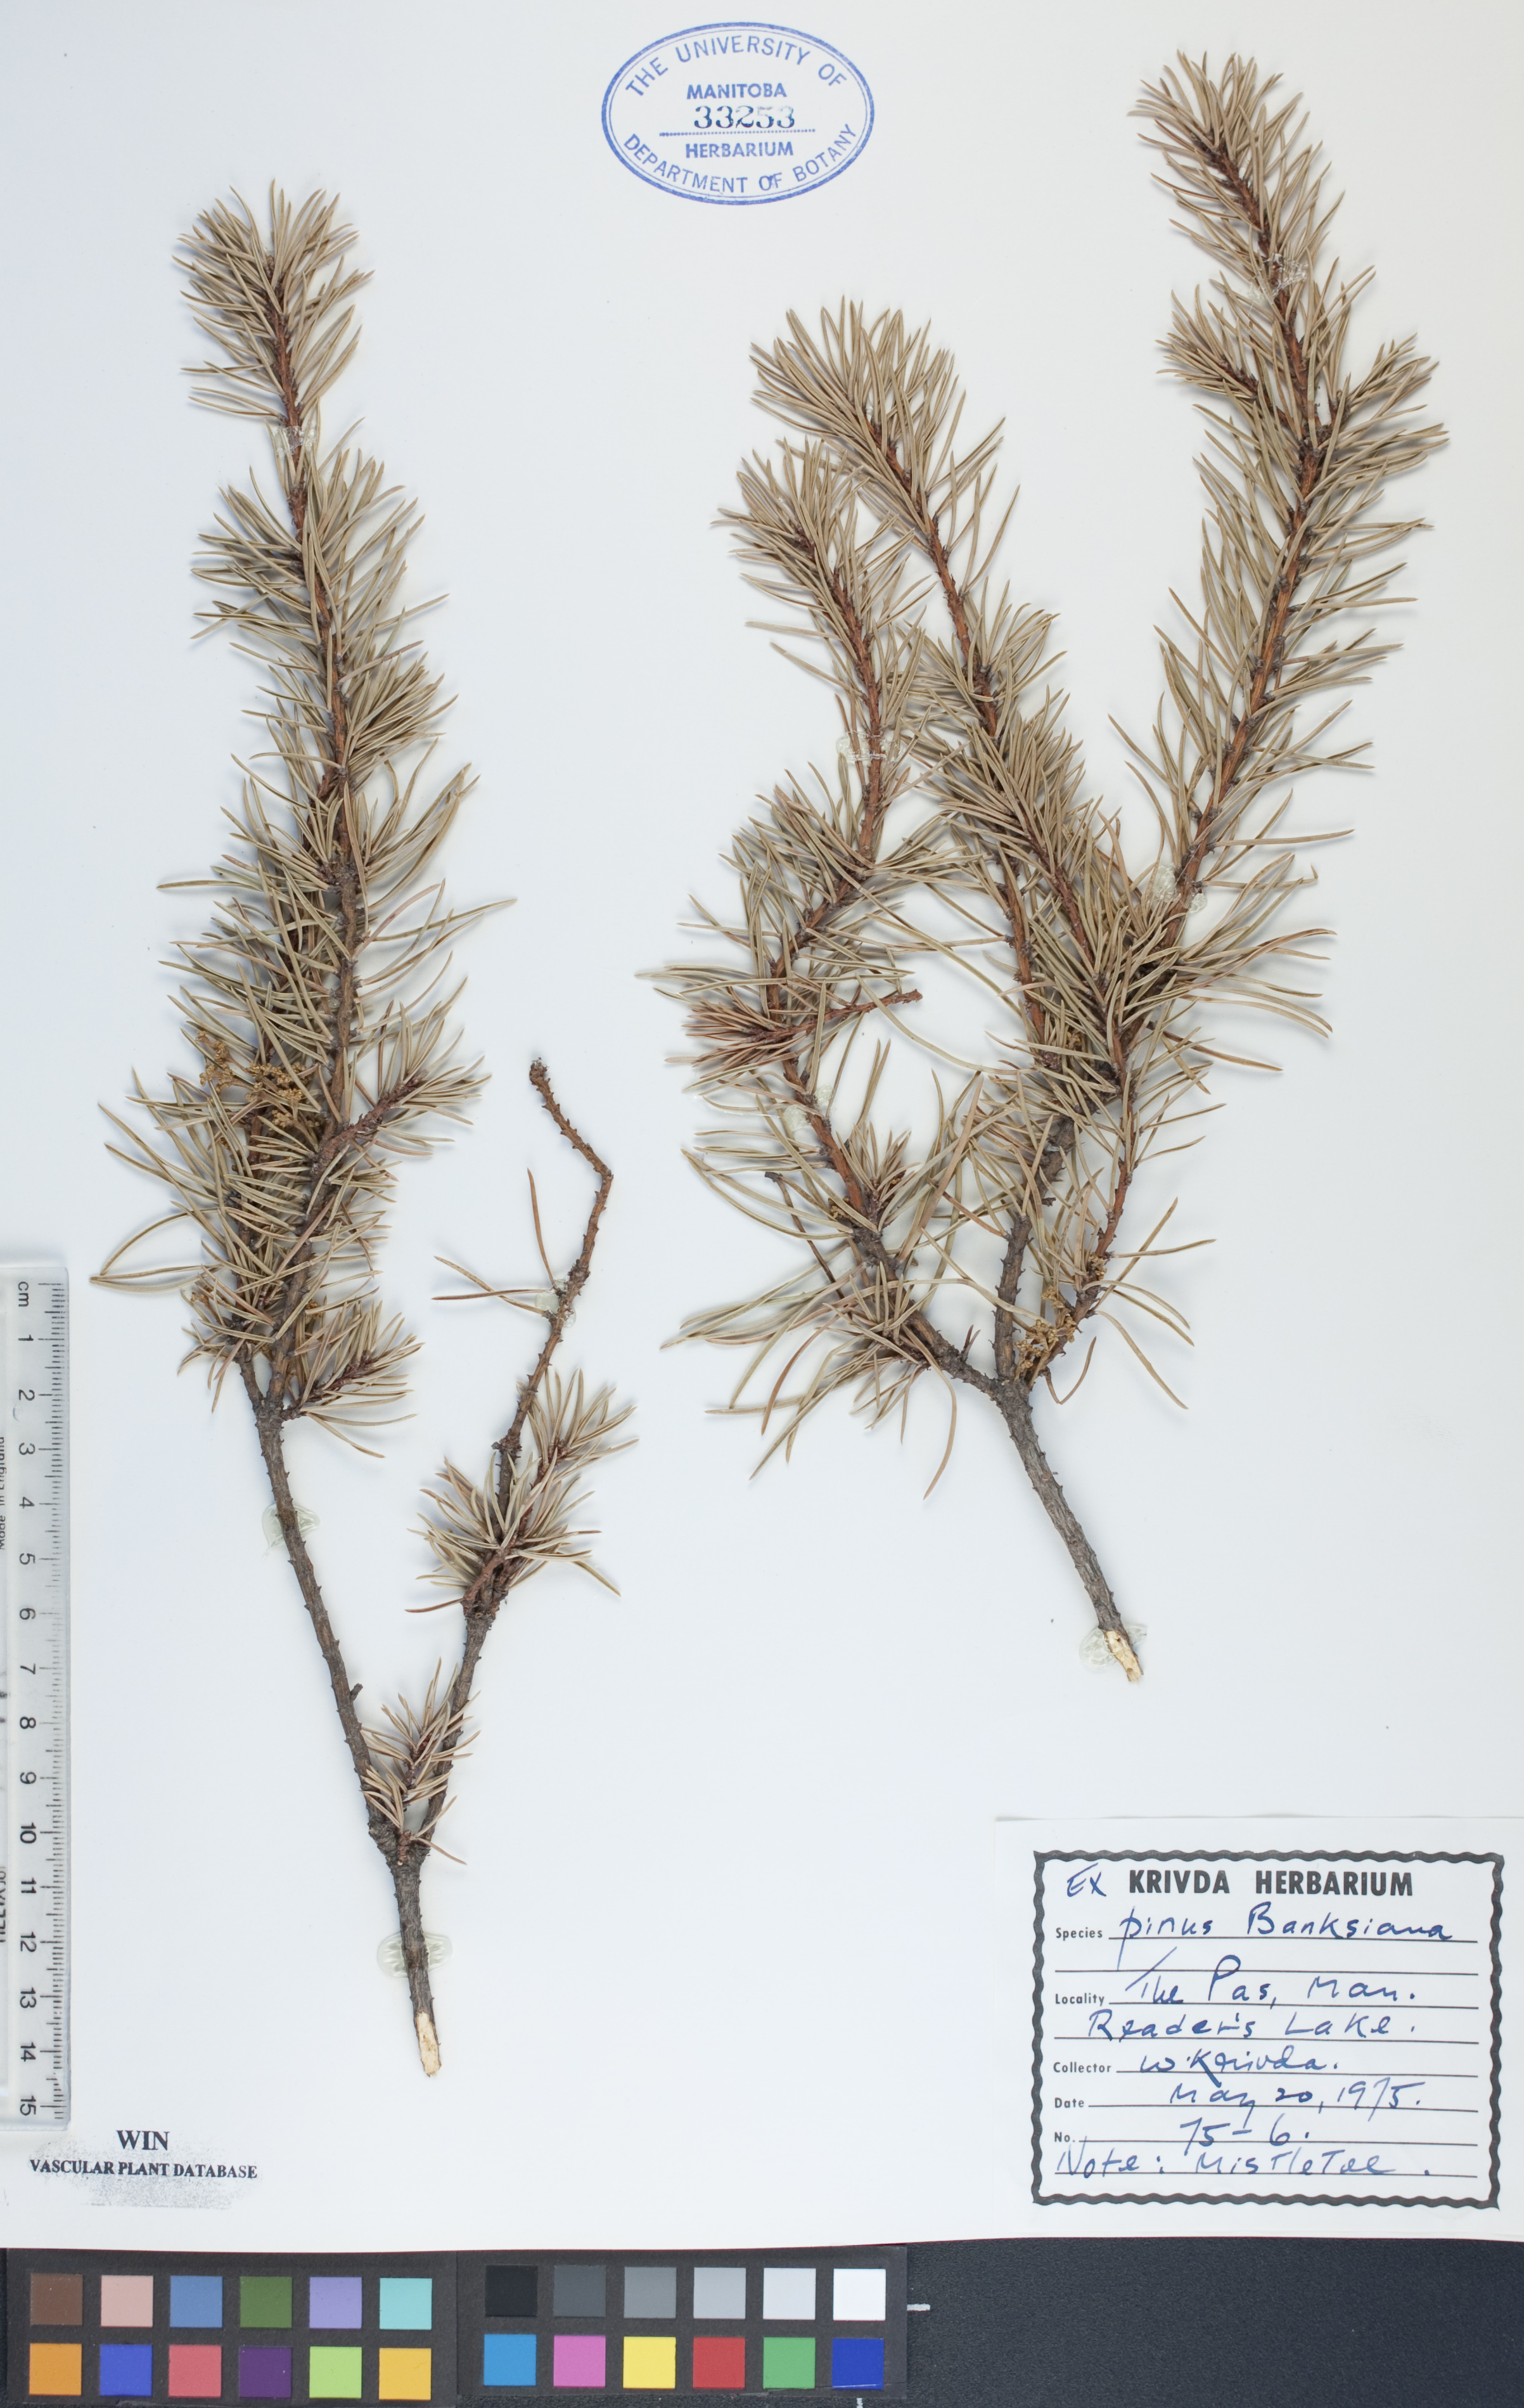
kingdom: Plantae
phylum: Tracheophyta
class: Pinopsida
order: Pinales
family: Pinaceae
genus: Pinus
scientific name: Pinus banksiana
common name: Jack pine
